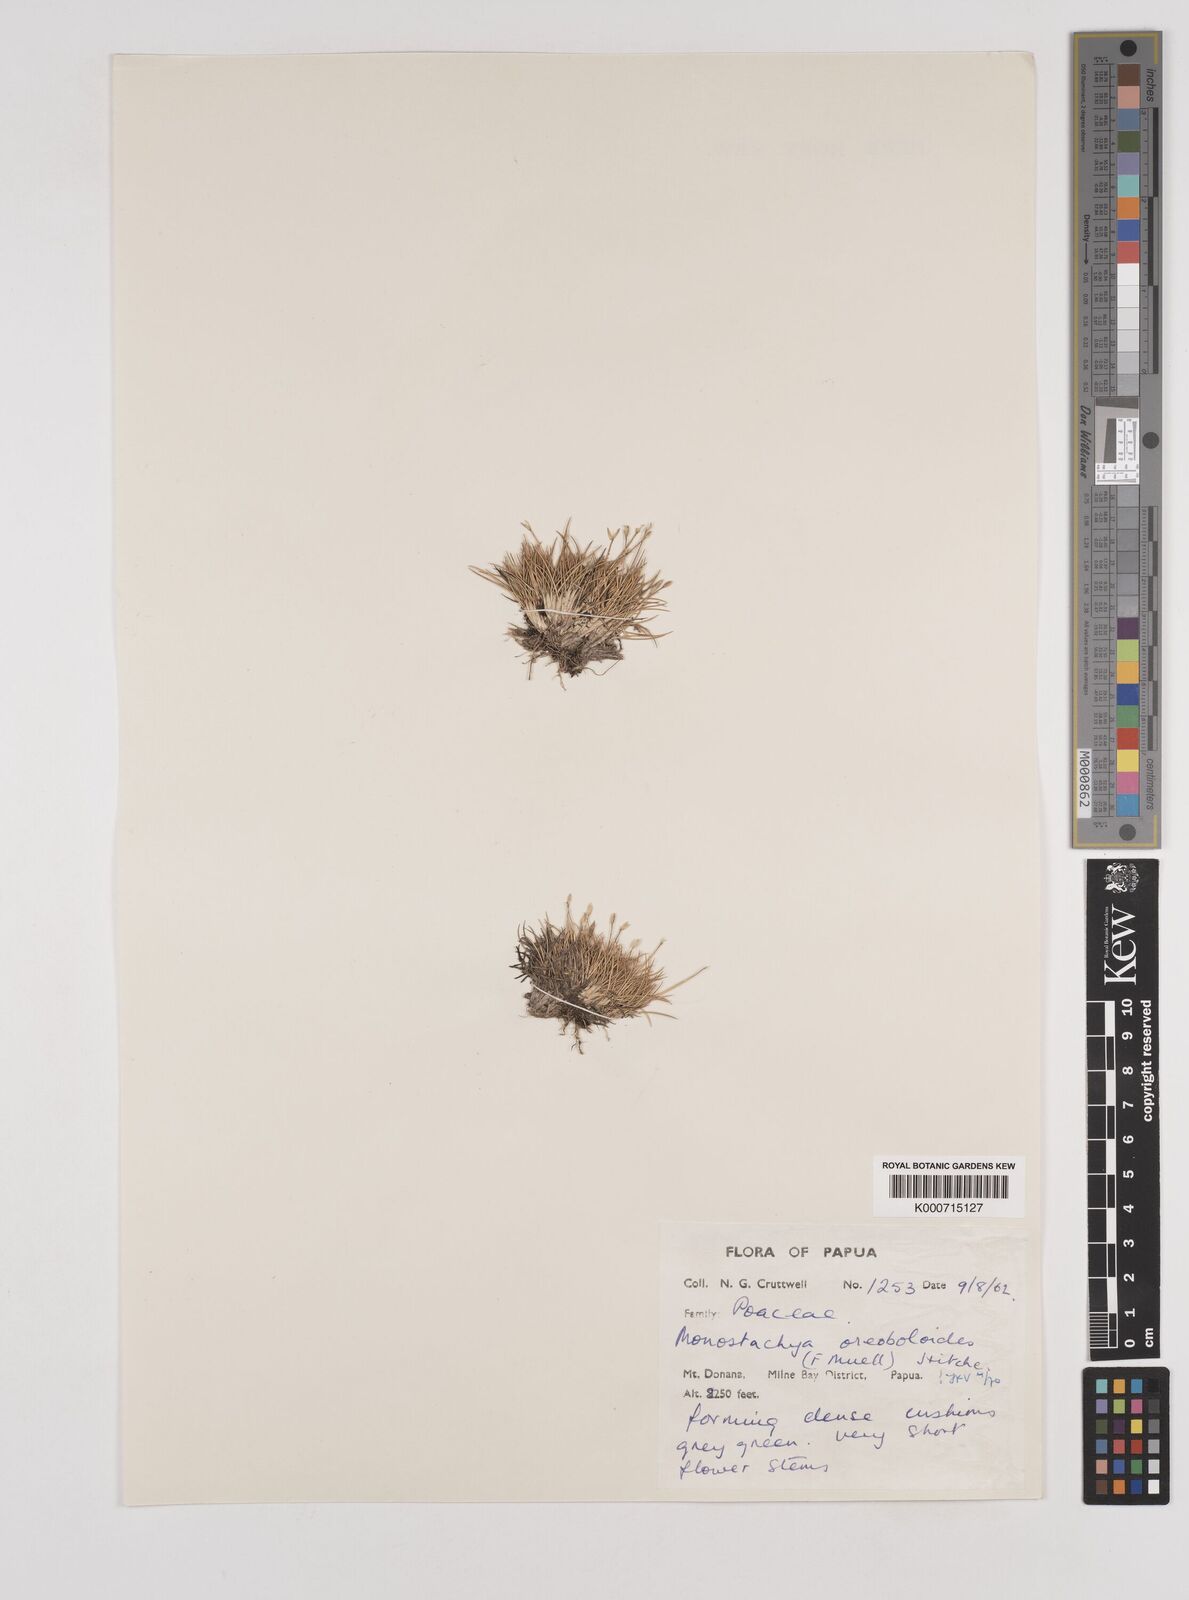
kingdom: Plantae
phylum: Tracheophyta
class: Liliopsida
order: Poales
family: Poaceae
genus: Rytidosperma
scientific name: Rytidosperma oreoboloides
